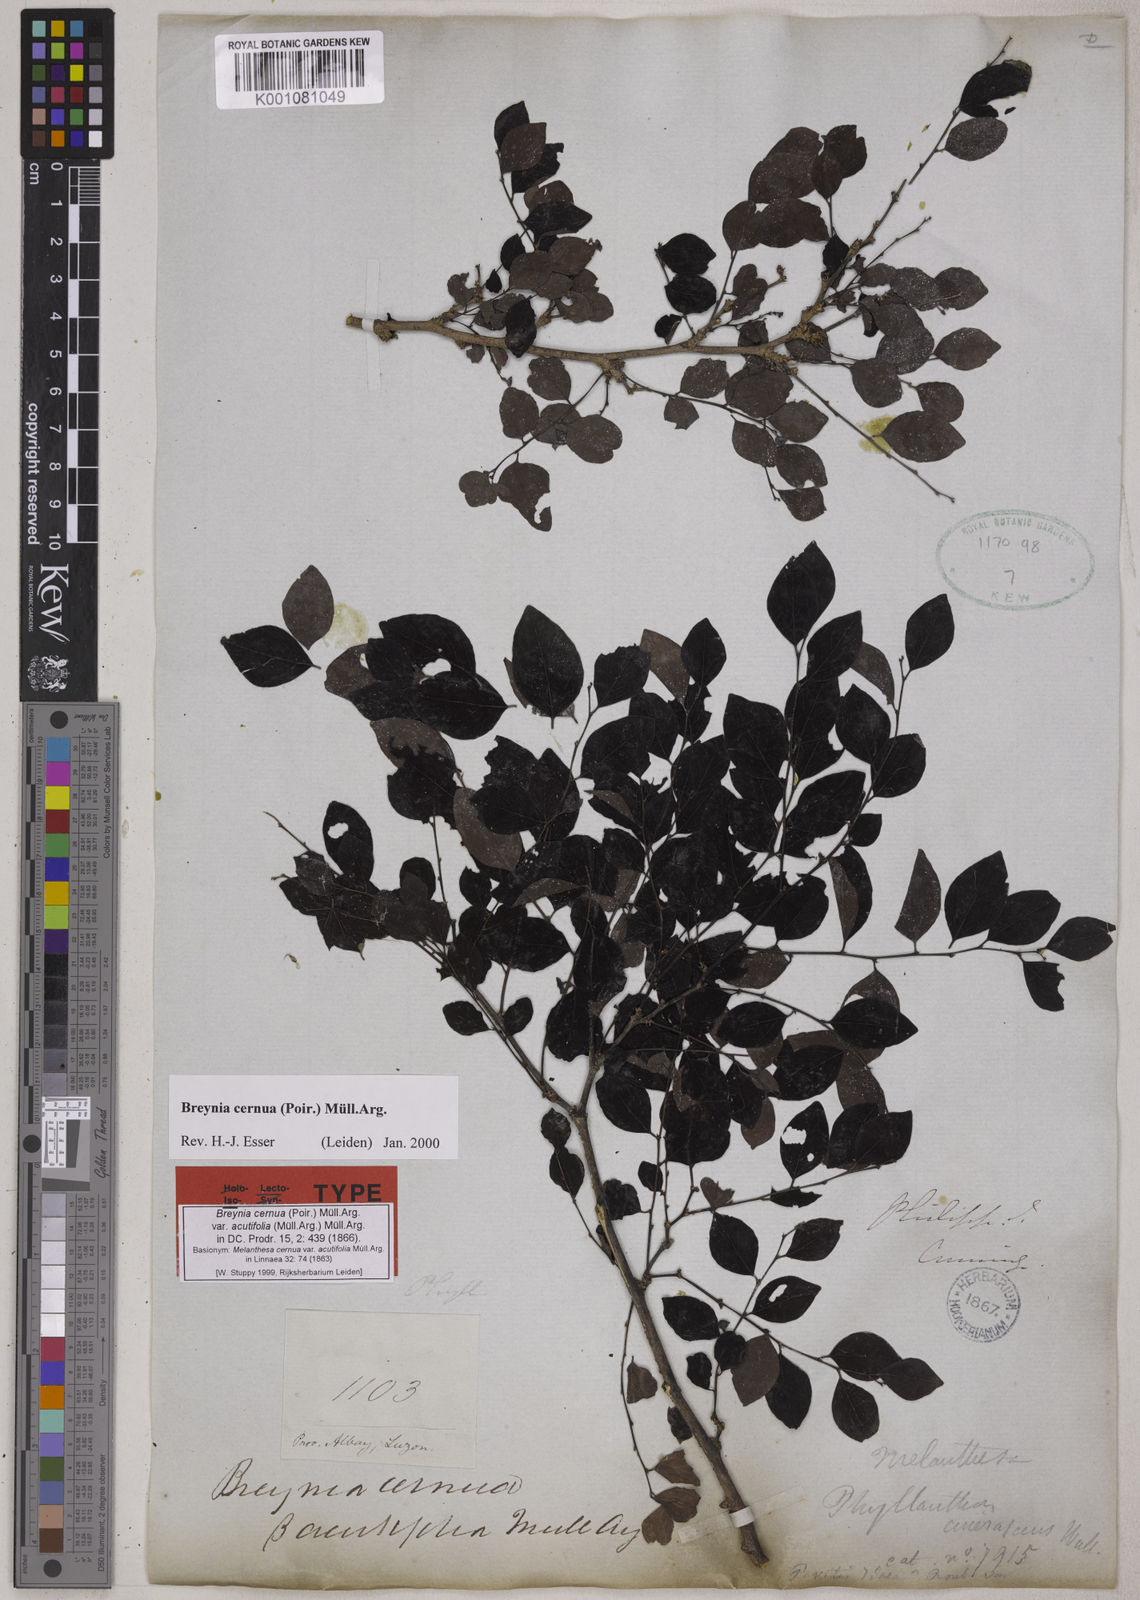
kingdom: Plantae
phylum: Tracheophyta
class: Magnoliopsida
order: Malpighiales
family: Phyllanthaceae
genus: Breynia
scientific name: Breynia
